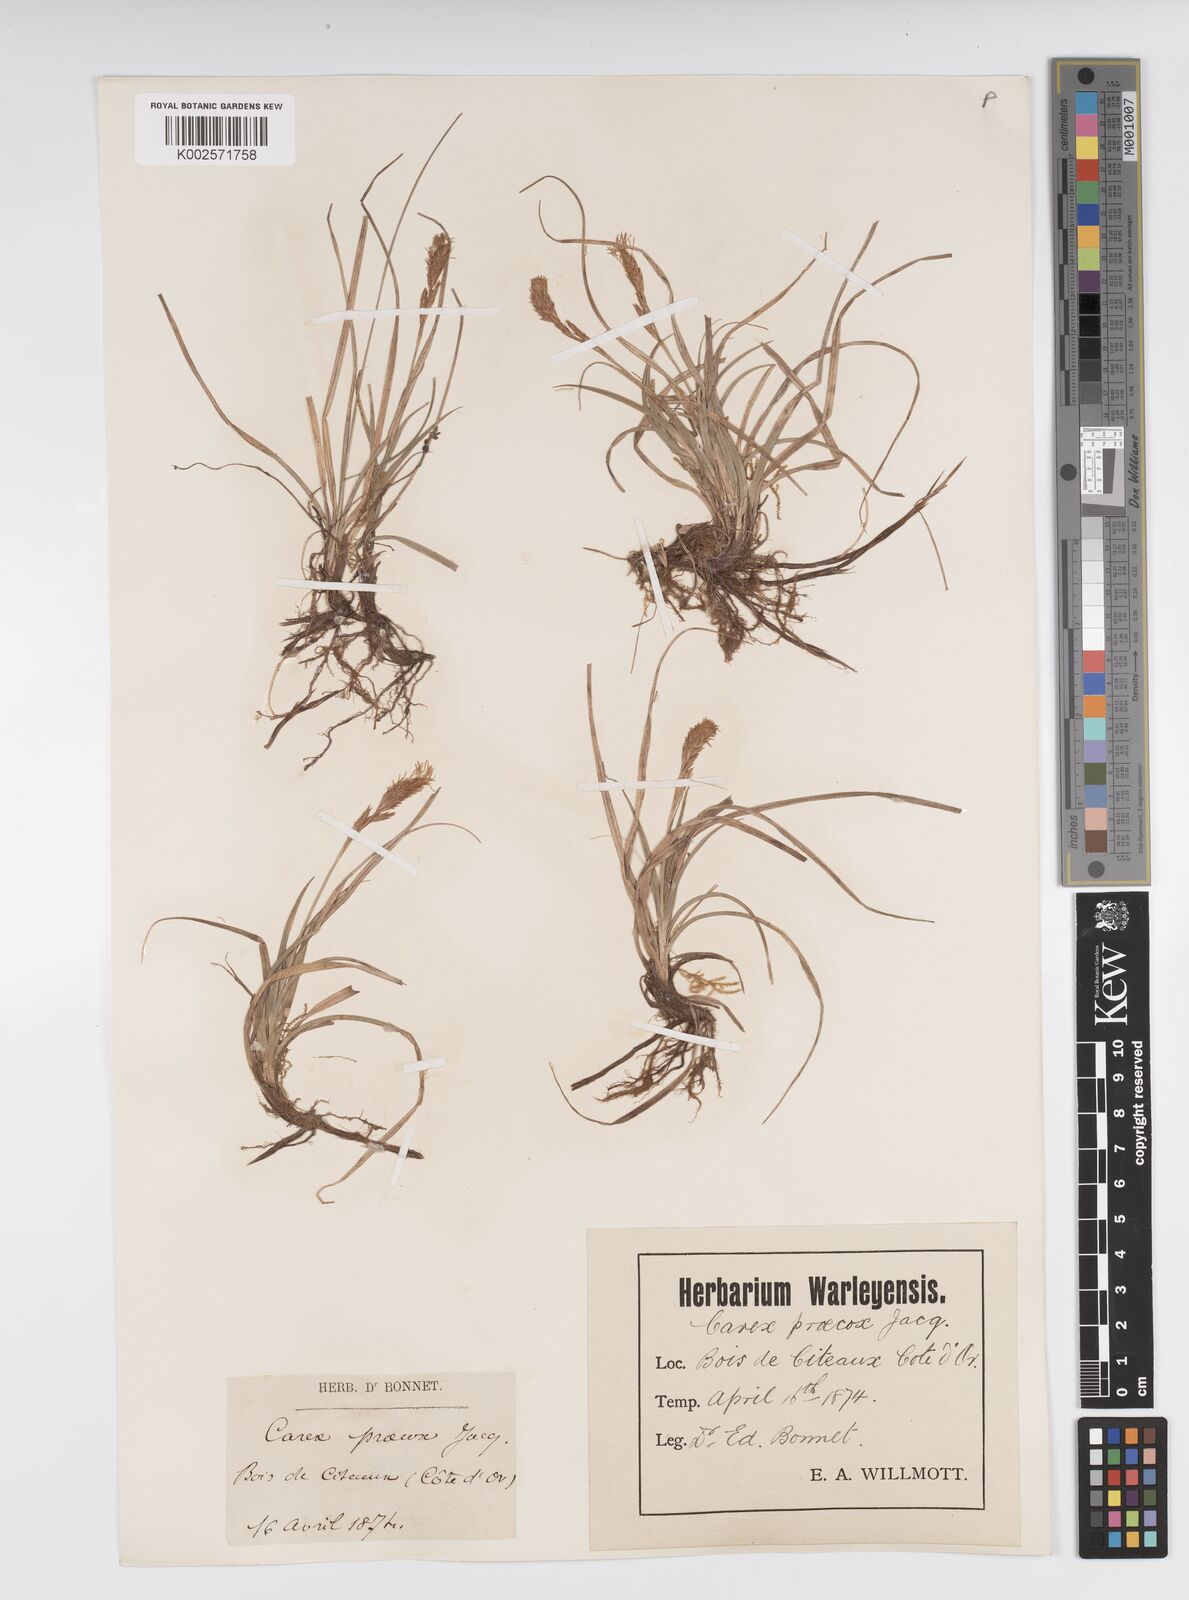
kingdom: Plantae
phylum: Tracheophyta
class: Liliopsida
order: Poales
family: Cyperaceae
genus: Carex
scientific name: Carex caryophyllea
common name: Spring sedge
